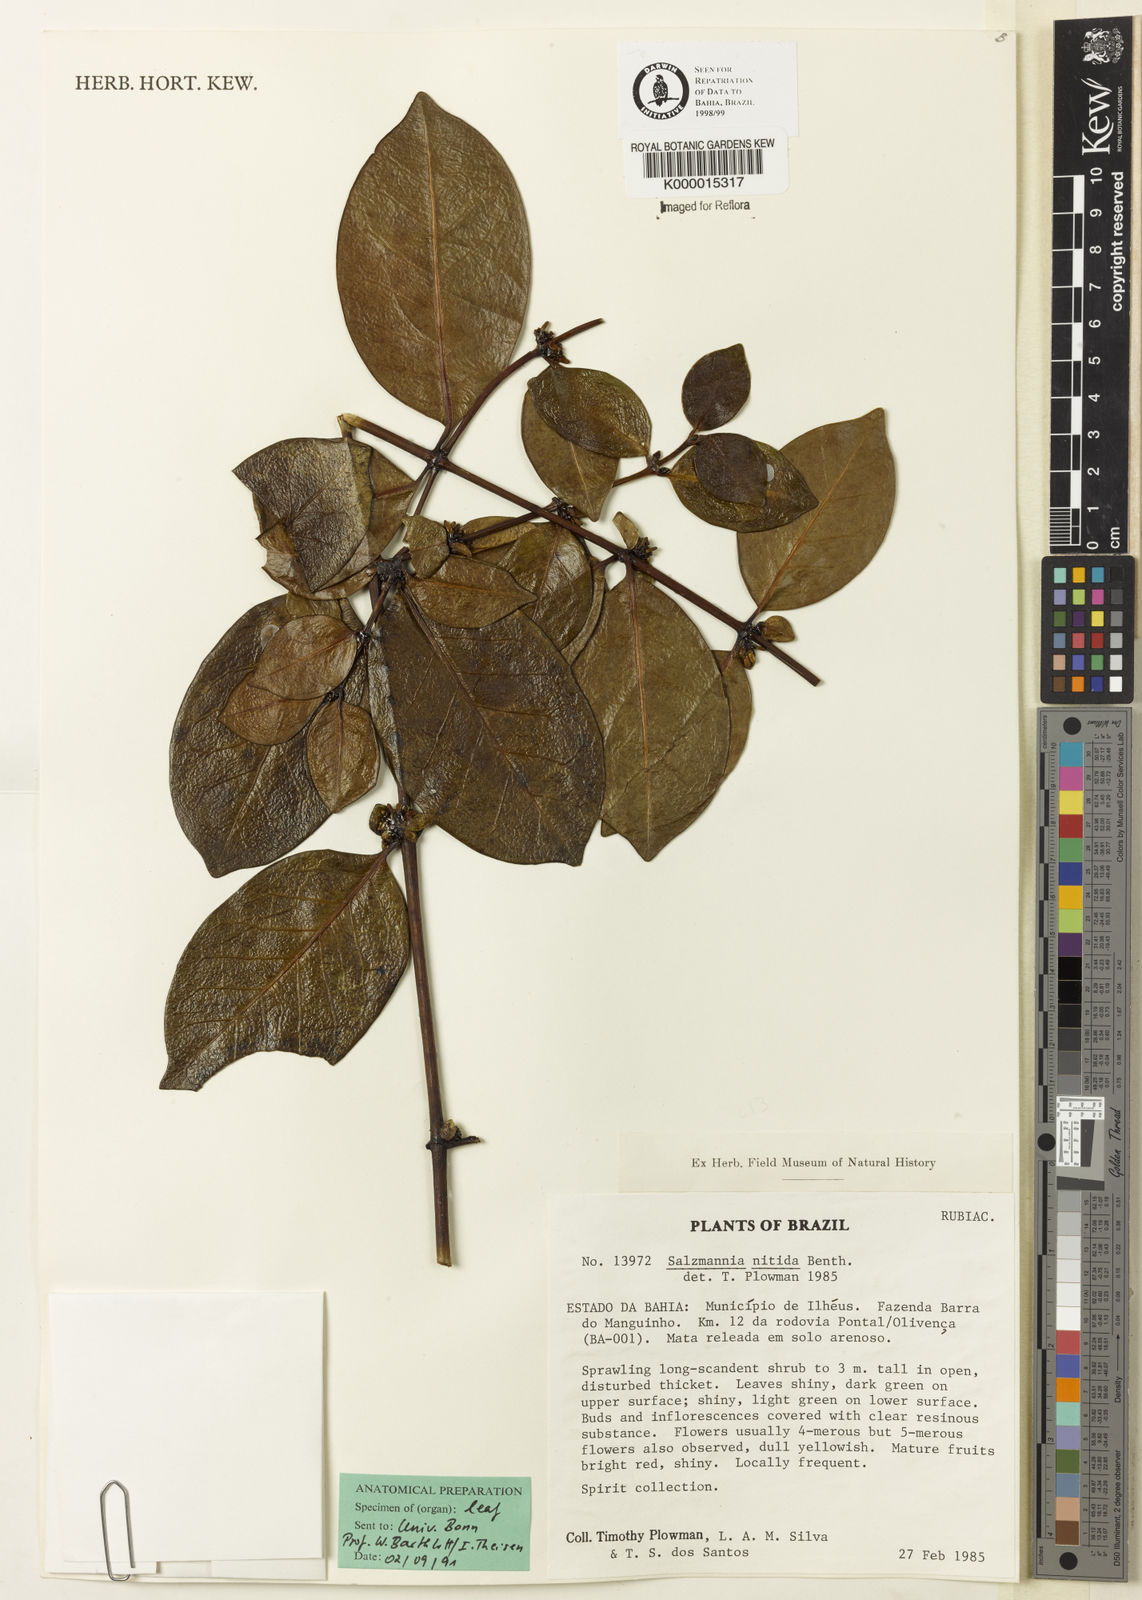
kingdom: Plantae
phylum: Tracheophyta
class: Magnoliopsida
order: Gentianales
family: Rubiaceae
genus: Salzmannia
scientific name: Salzmannia nitida
